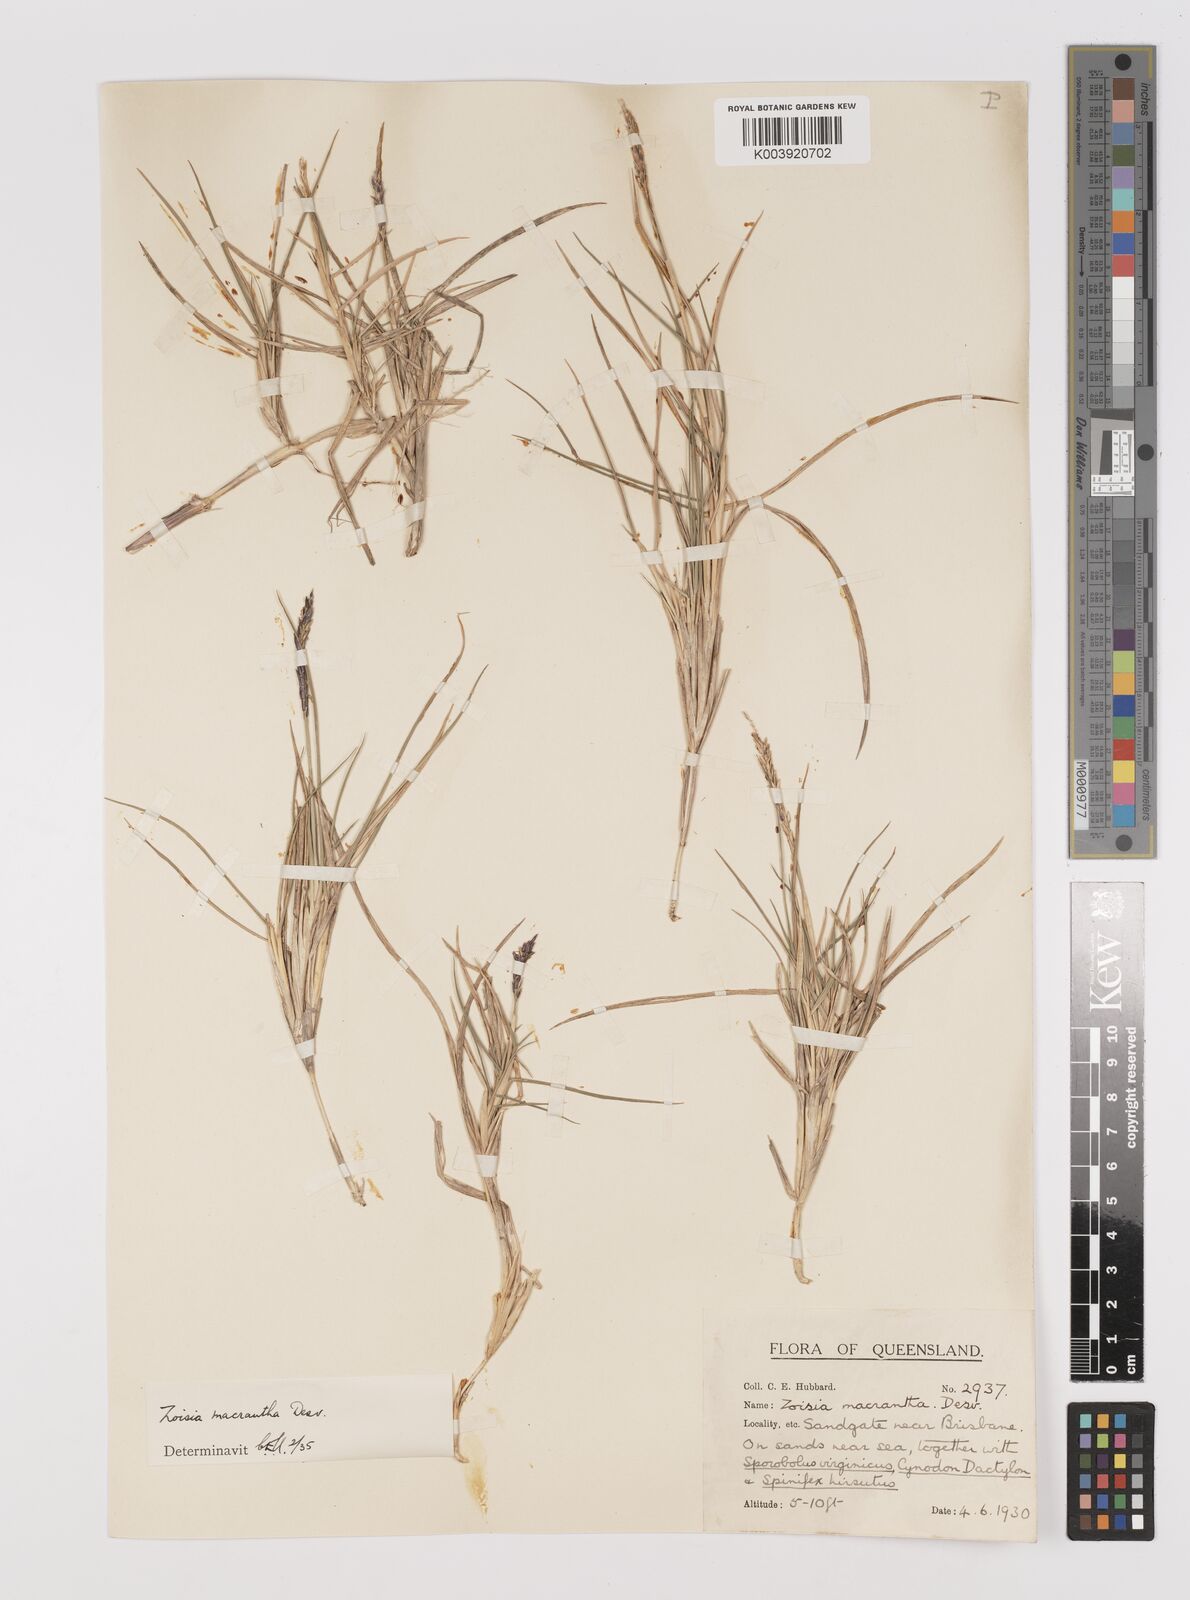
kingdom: Plantae
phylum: Tracheophyta
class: Liliopsida
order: Poales
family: Poaceae
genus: Zoysia
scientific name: Zoysia macrantha
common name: Korean lawn grass
